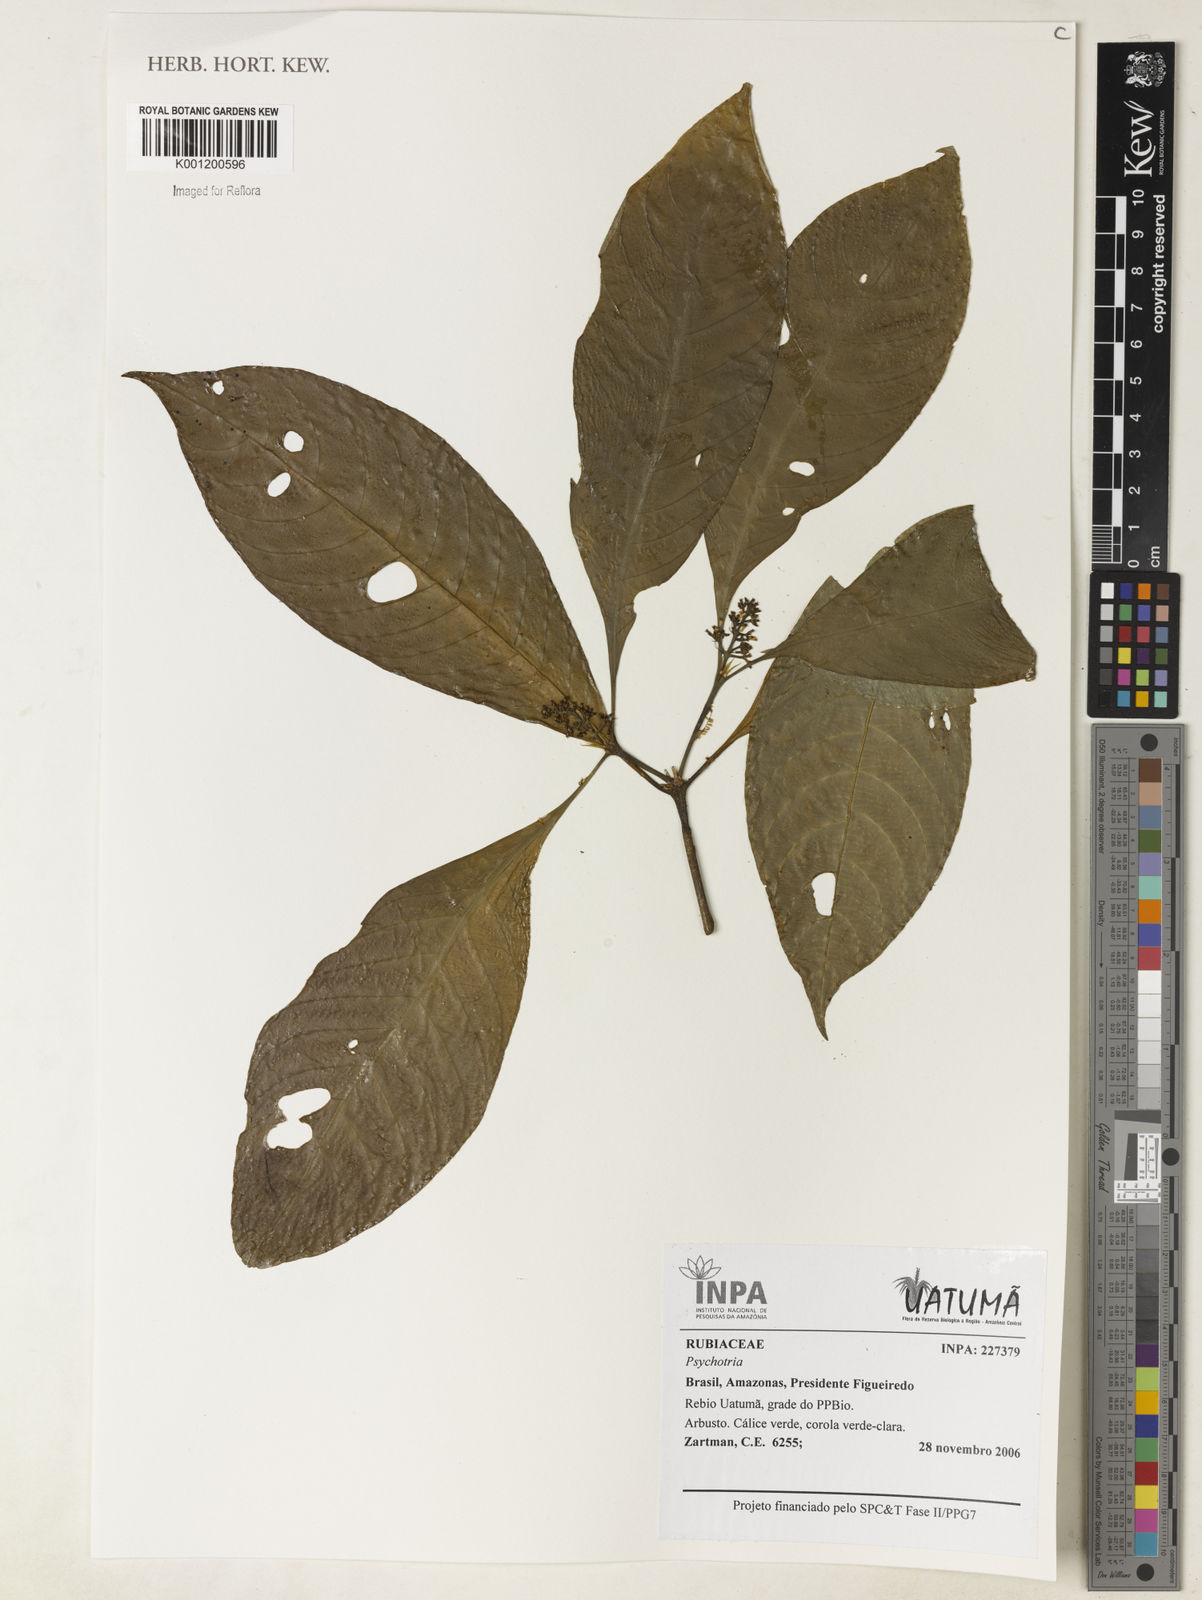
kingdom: Plantae
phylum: Tracheophyta
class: Magnoliopsida
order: Gentianales
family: Rubiaceae
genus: Psychotria
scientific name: Psychotria
